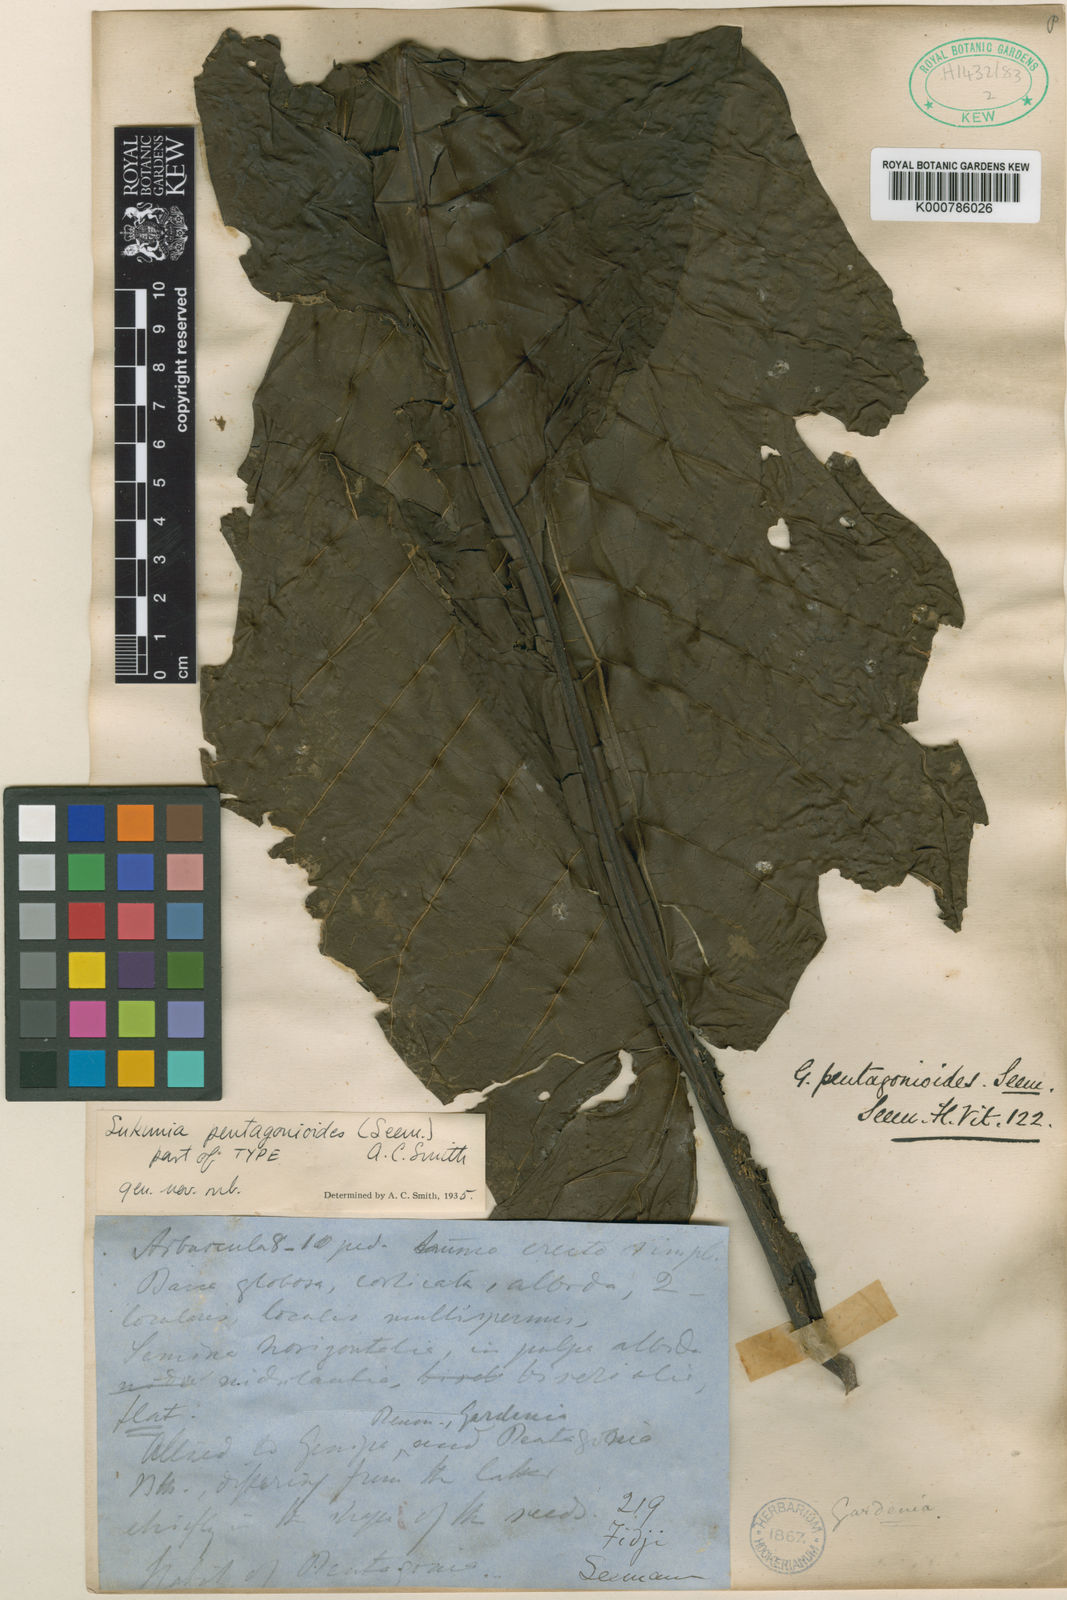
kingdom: Plantae
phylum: Tracheophyta
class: Magnoliopsida
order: Gentianales
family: Rubiaceae
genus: Atractocarpus
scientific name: Atractocarpus pentagonioides
